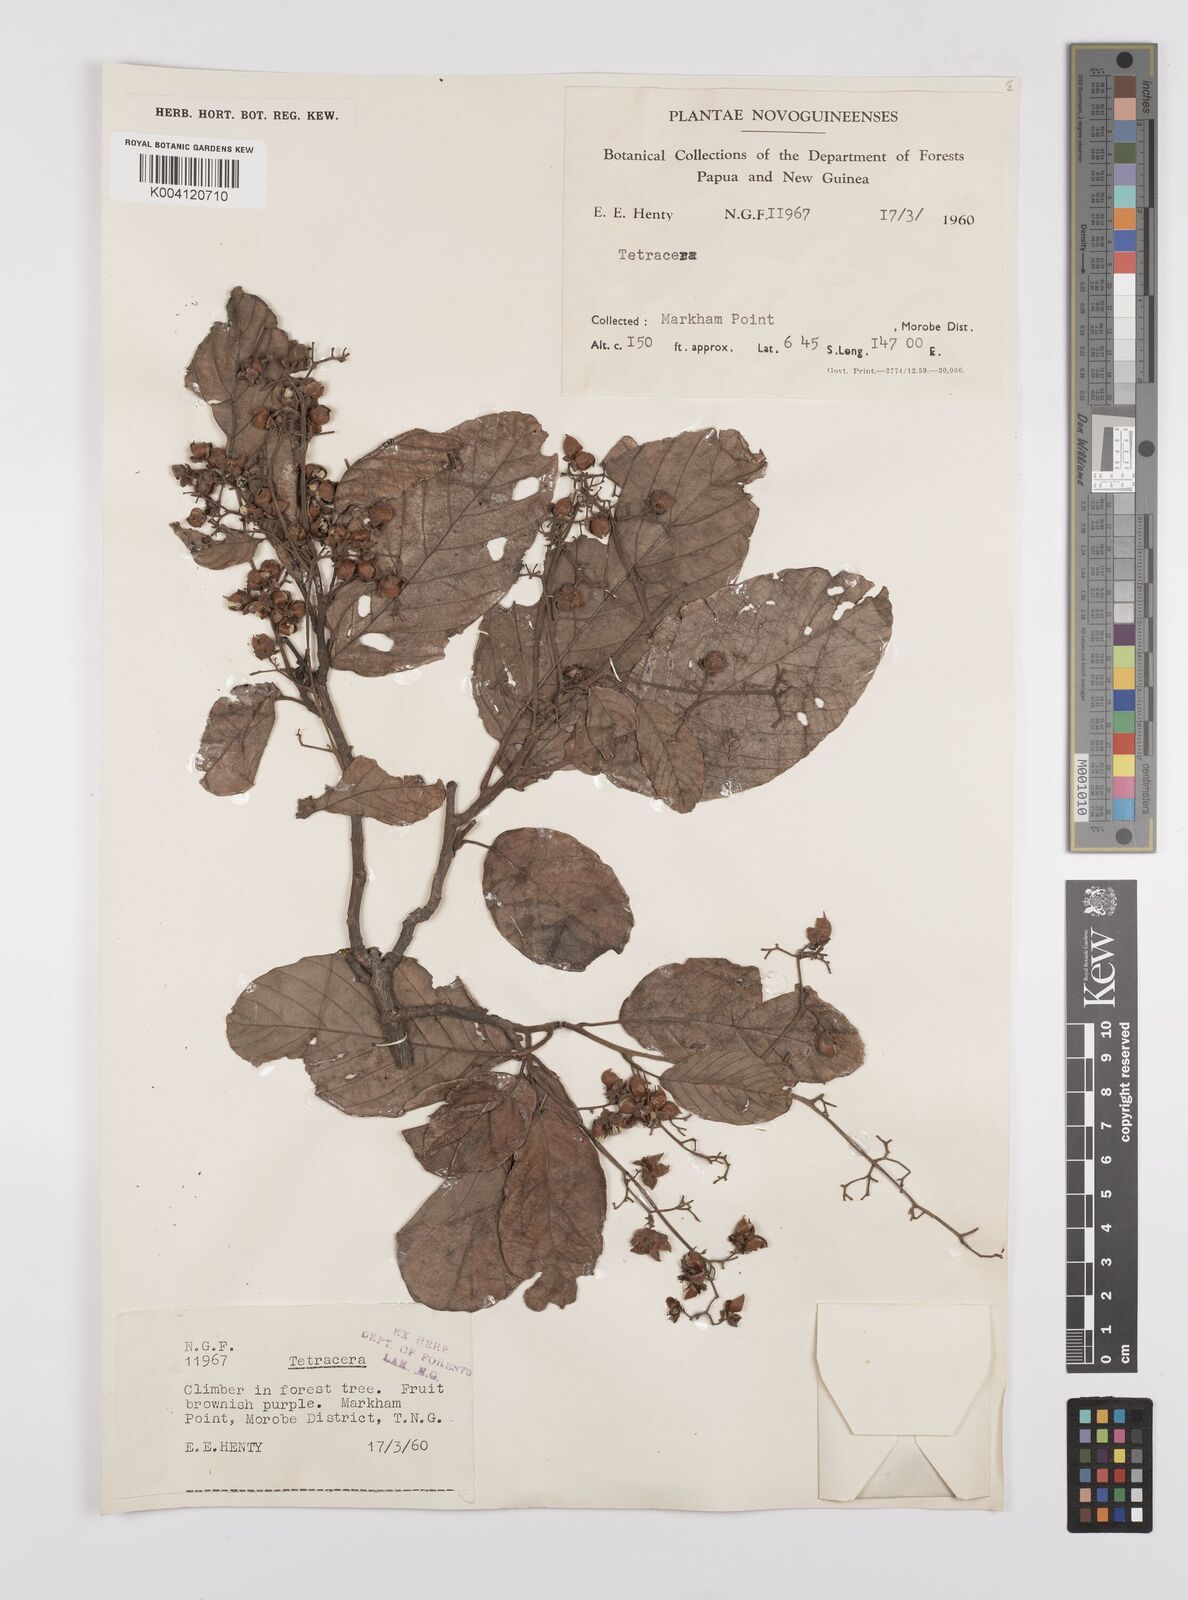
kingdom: Plantae
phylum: Tracheophyta
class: Magnoliopsida
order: Dilleniales
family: Dilleniaceae
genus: Tetracera
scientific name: Tetracera
